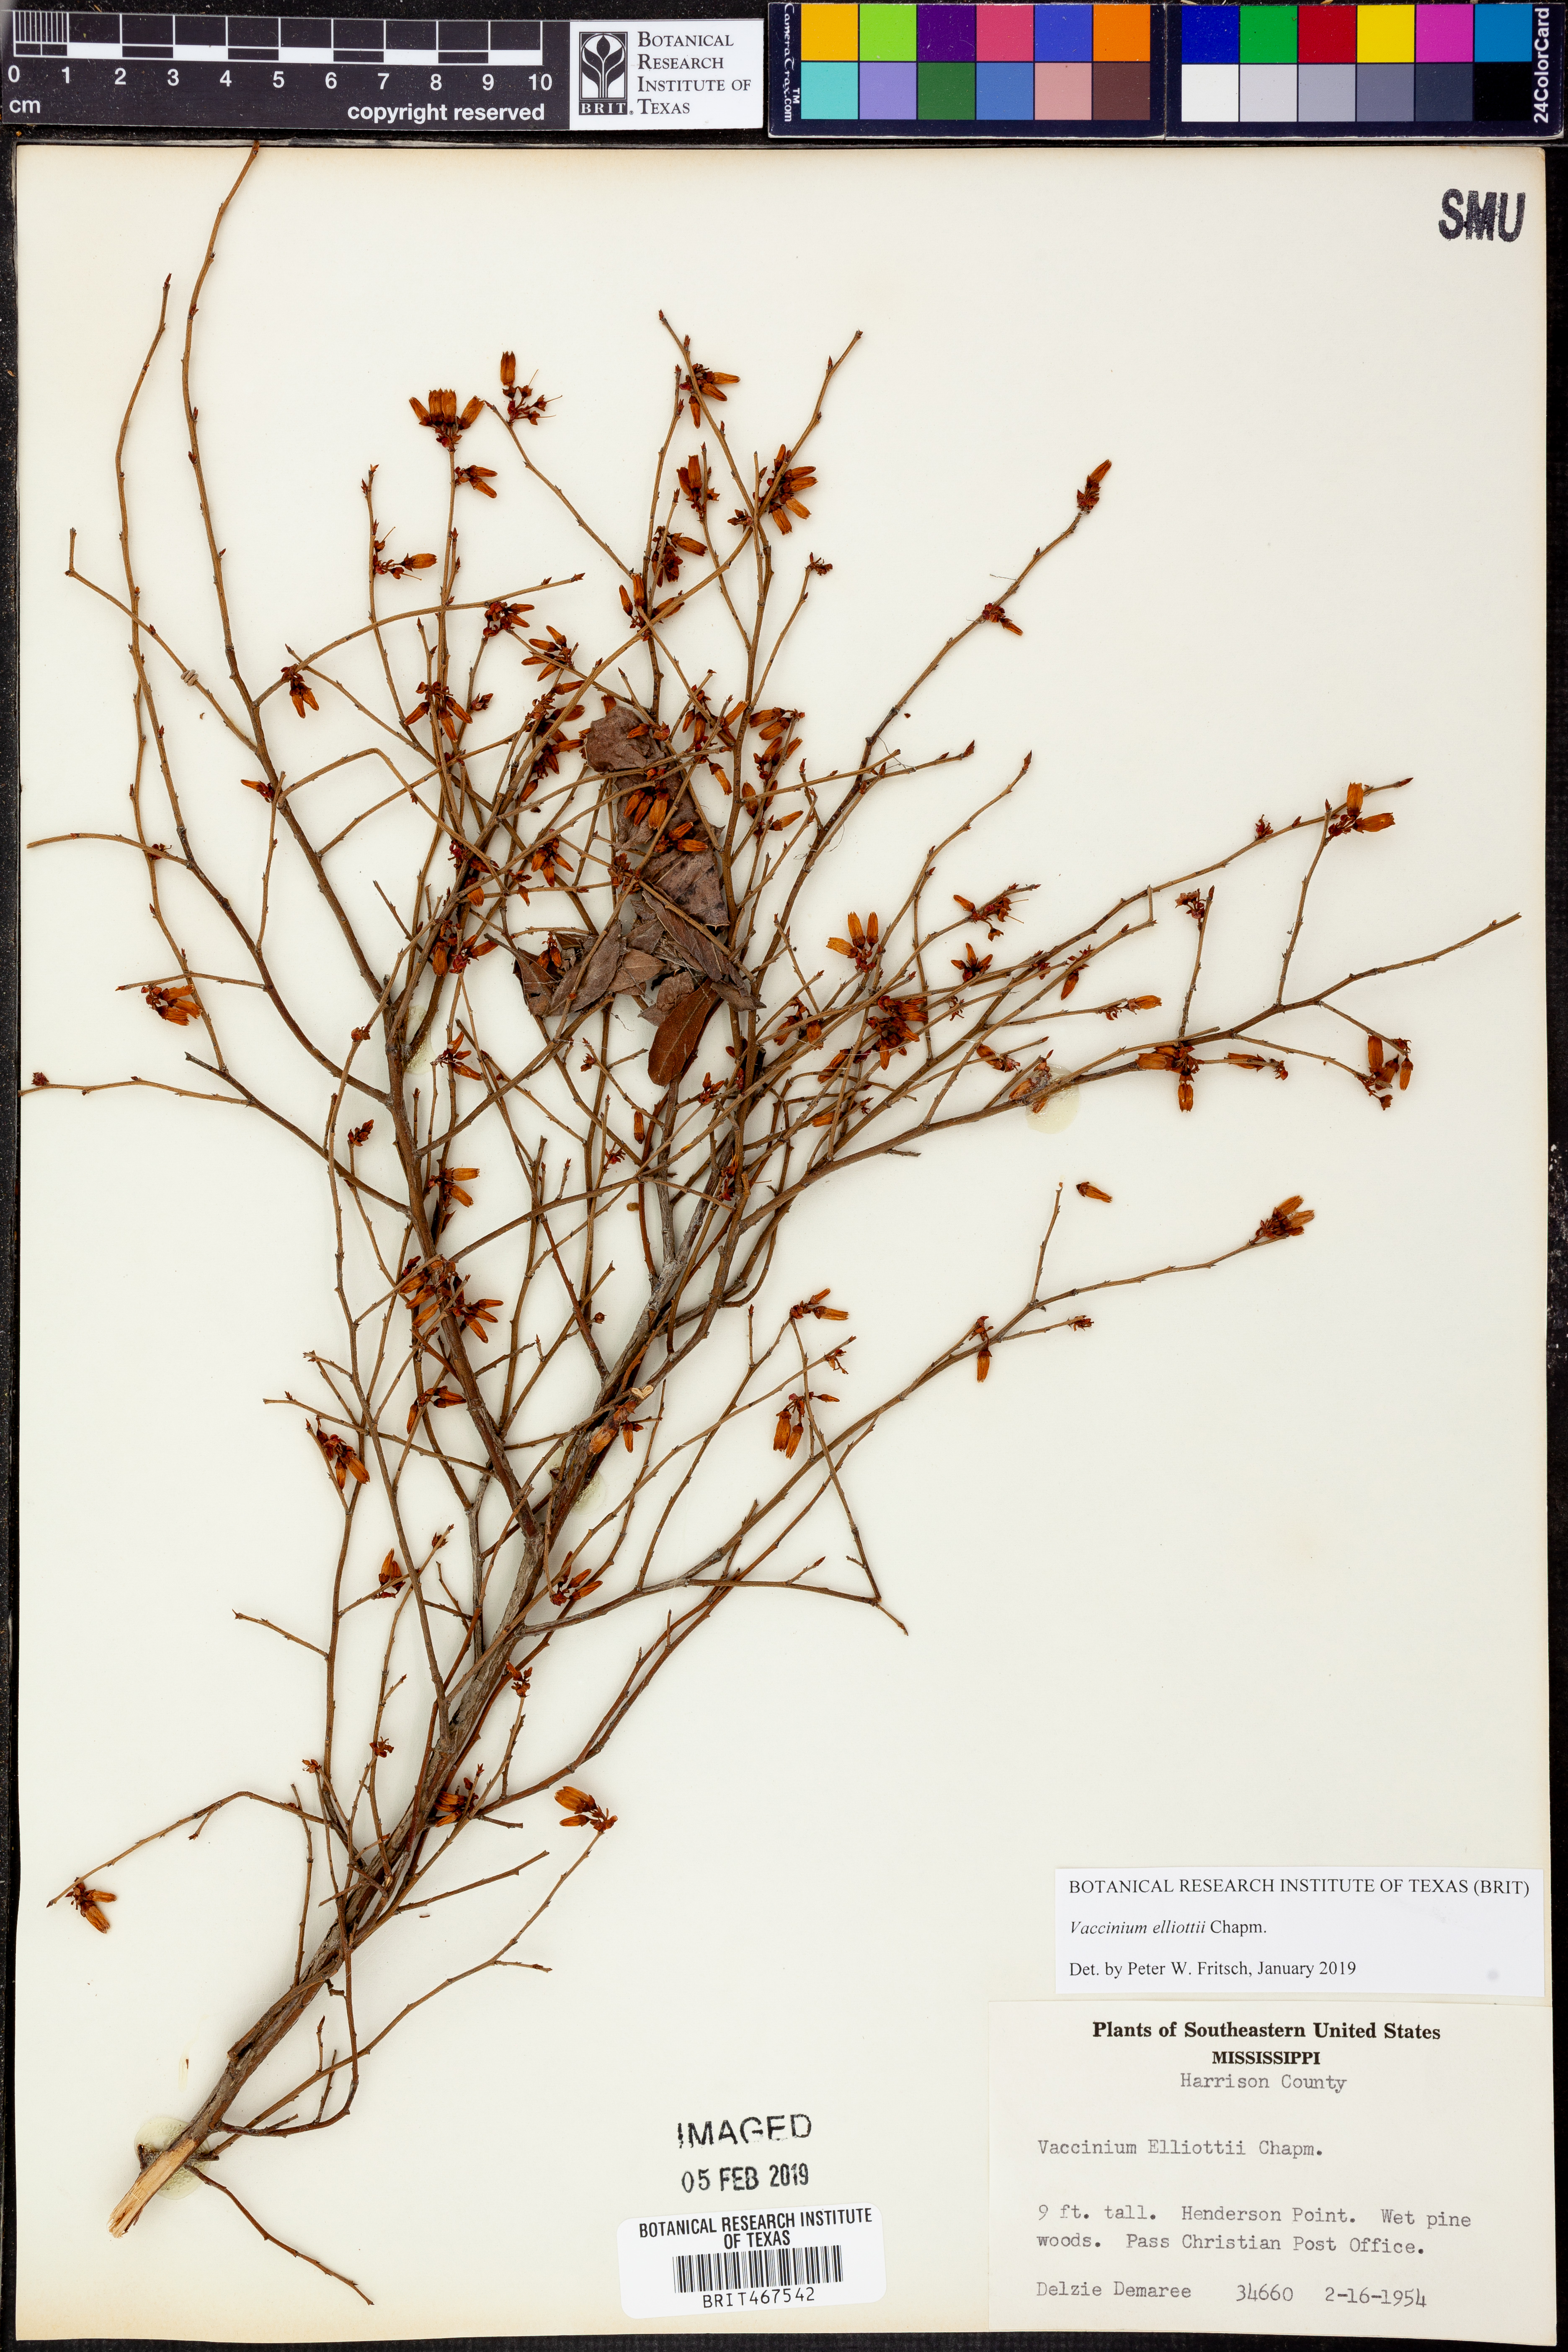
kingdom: Plantae
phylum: Tracheophyta
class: Magnoliopsida
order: Ericales
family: Ericaceae
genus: Vaccinium
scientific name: Vaccinium corymbosum
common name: Blueberry
